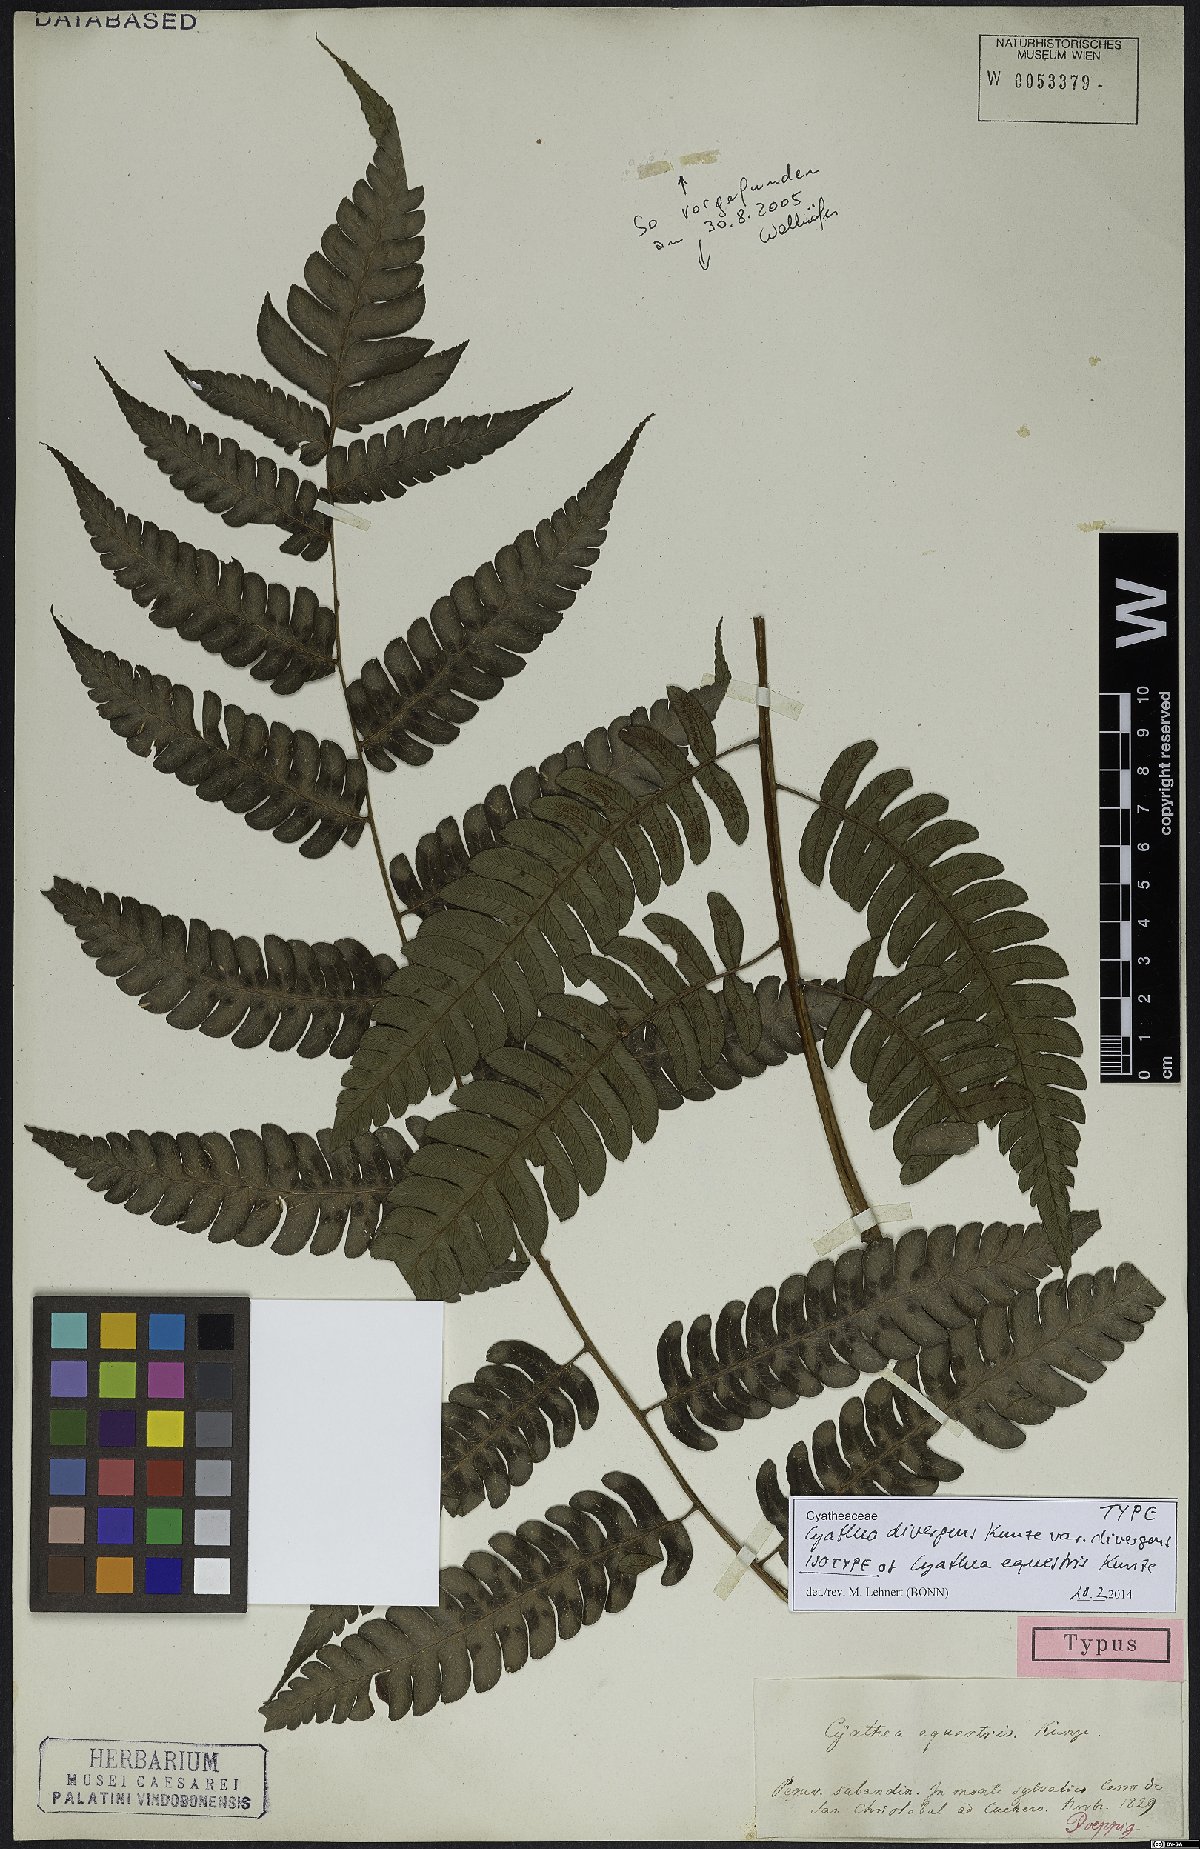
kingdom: Plantae
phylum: Tracheophyta
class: Polypodiopsida
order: Cyatheales
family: Cyatheaceae
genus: Cyathea
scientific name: Cyathea divergens
